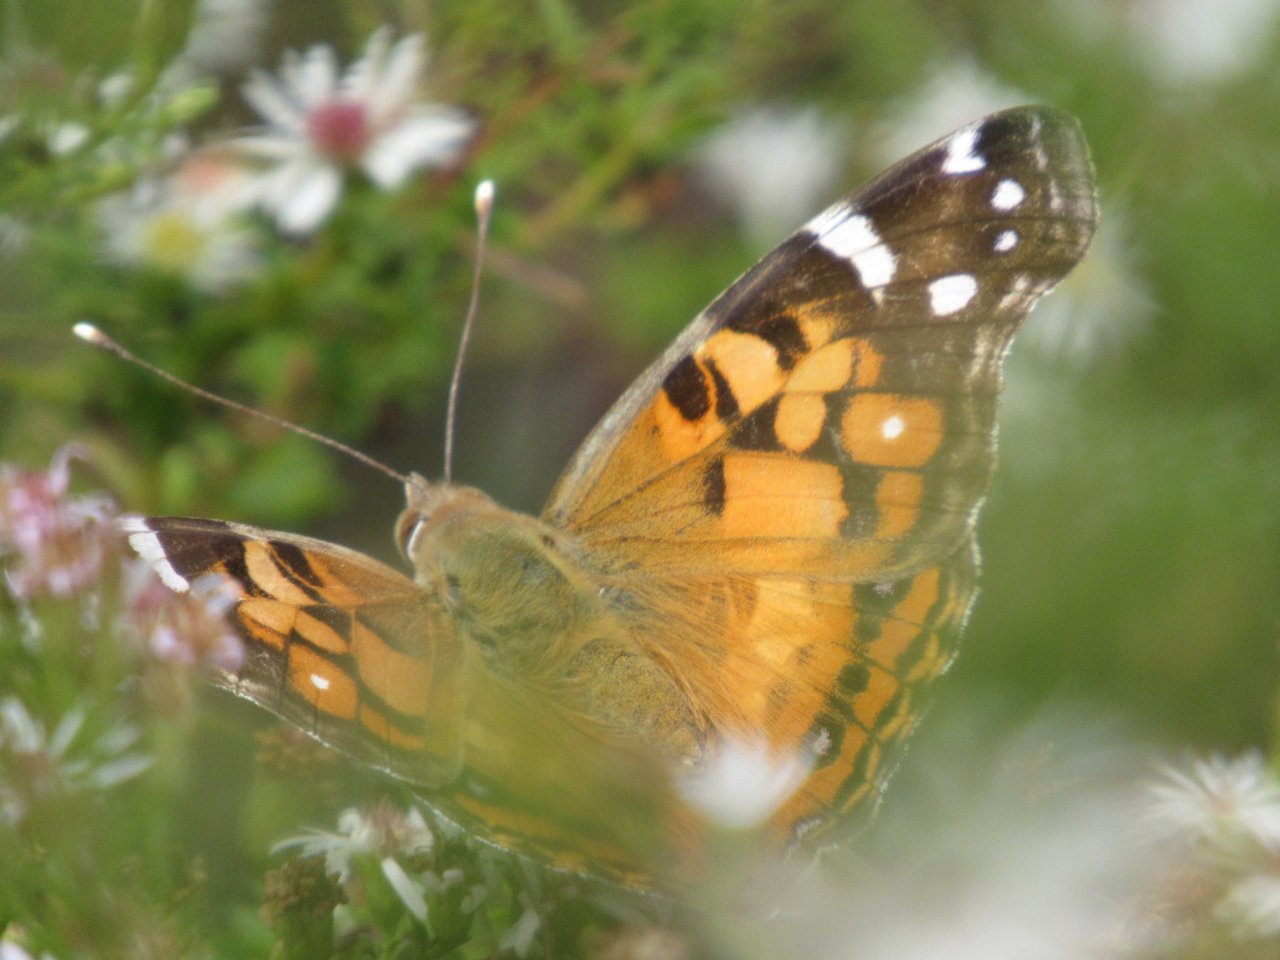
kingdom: Animalia
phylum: Arthropoda
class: Insecta
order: Lepidoptera
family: Nymphalidae
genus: Vanessa
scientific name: Vanessa virginiensis
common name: American Lady
